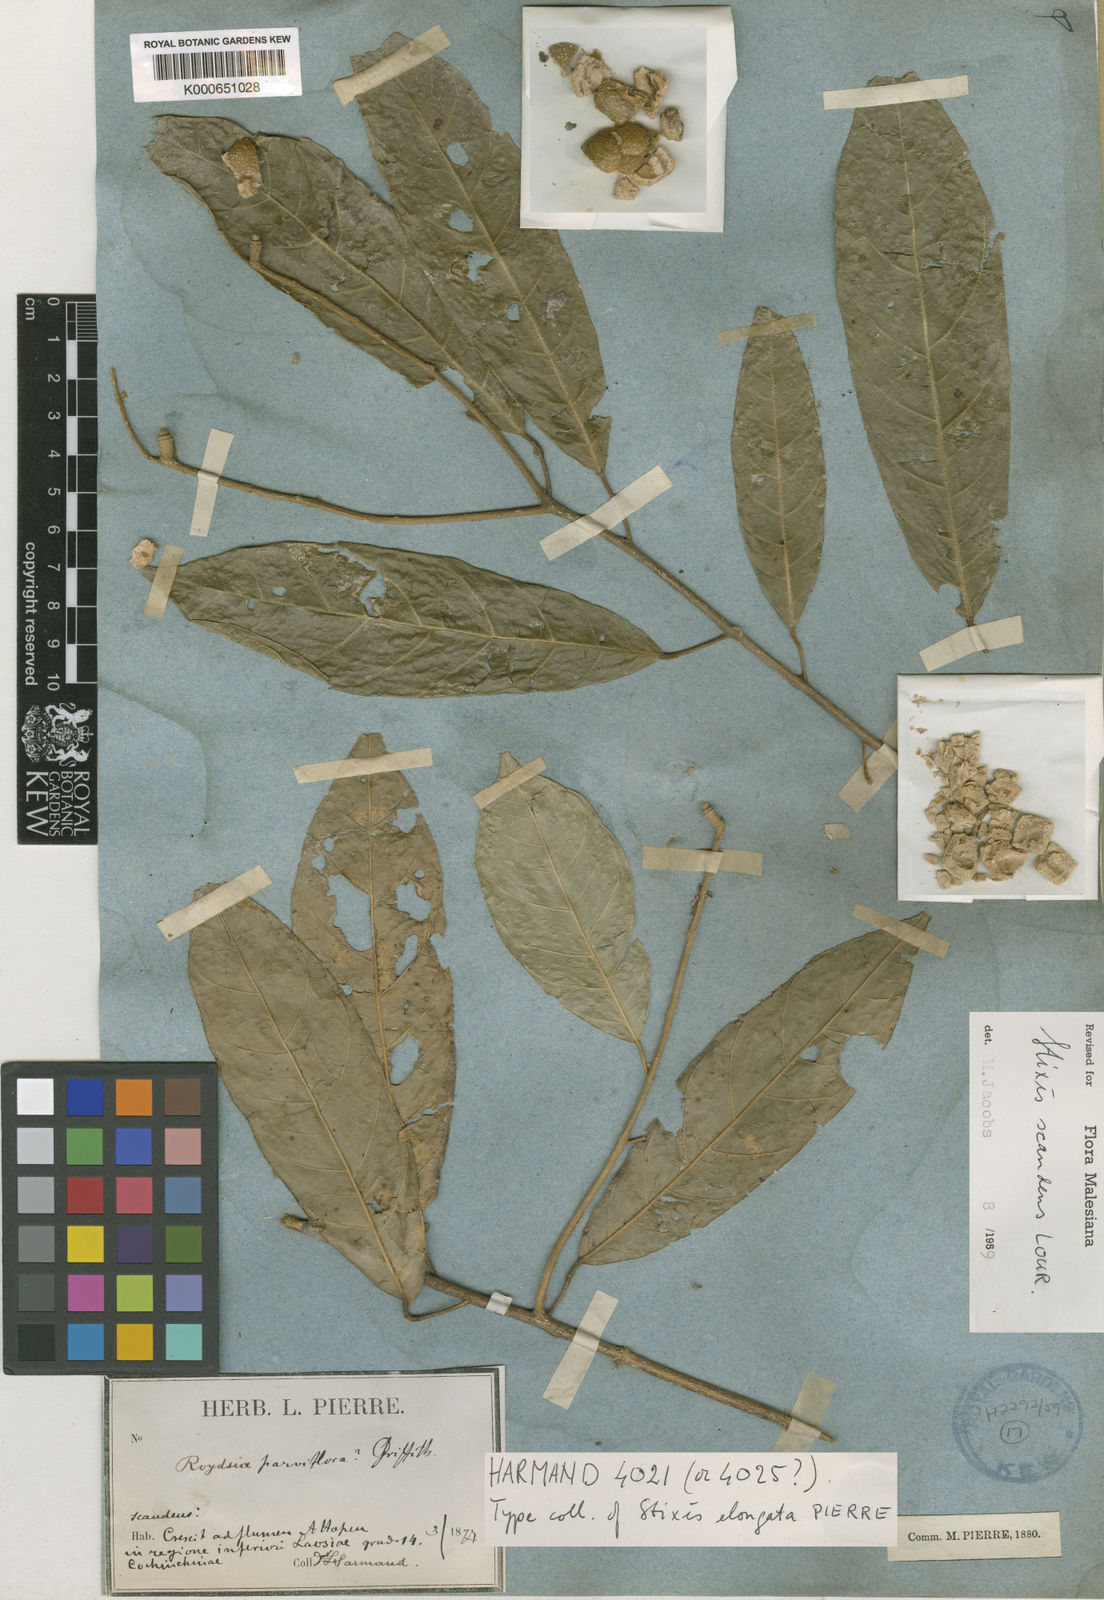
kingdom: Plantae
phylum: Tracheophyta
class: Magnoliopsida
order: Brassicales
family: Stixaceae
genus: Stixis
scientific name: Stixis scandens
